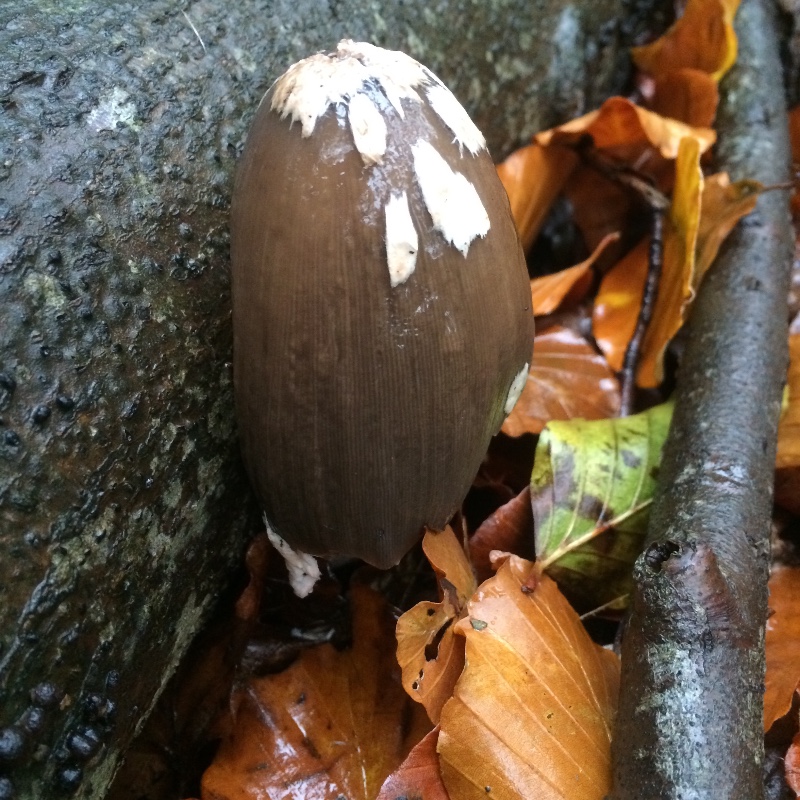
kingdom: Fungi
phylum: Basidiomycota
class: Agaricomycetes
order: Agaricales
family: Psathyrellaceae
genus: Coprinopsis
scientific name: Coprinopsis picacea
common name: skade-blækhat
